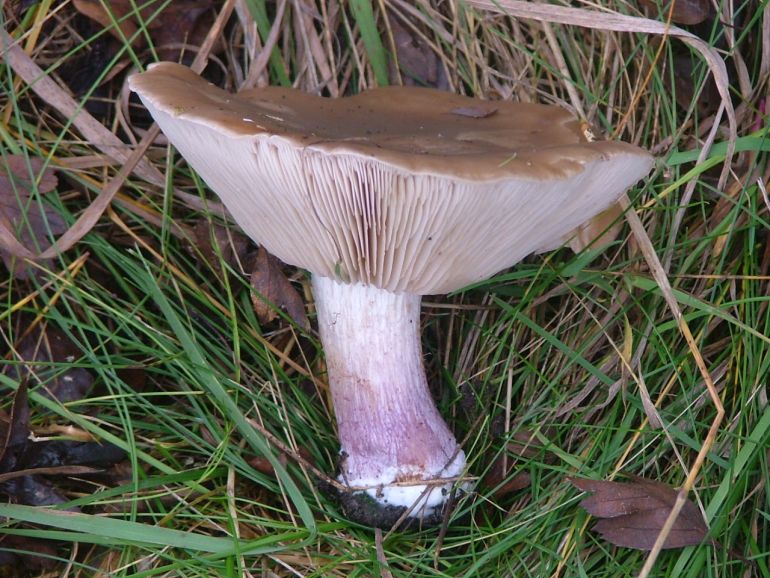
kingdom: Fungi
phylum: Basidiomycota
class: Agaricomycetes
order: Agaricales
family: Tricholomataceae
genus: Lepista
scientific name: Lepista personata
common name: bleg hekseringshat
